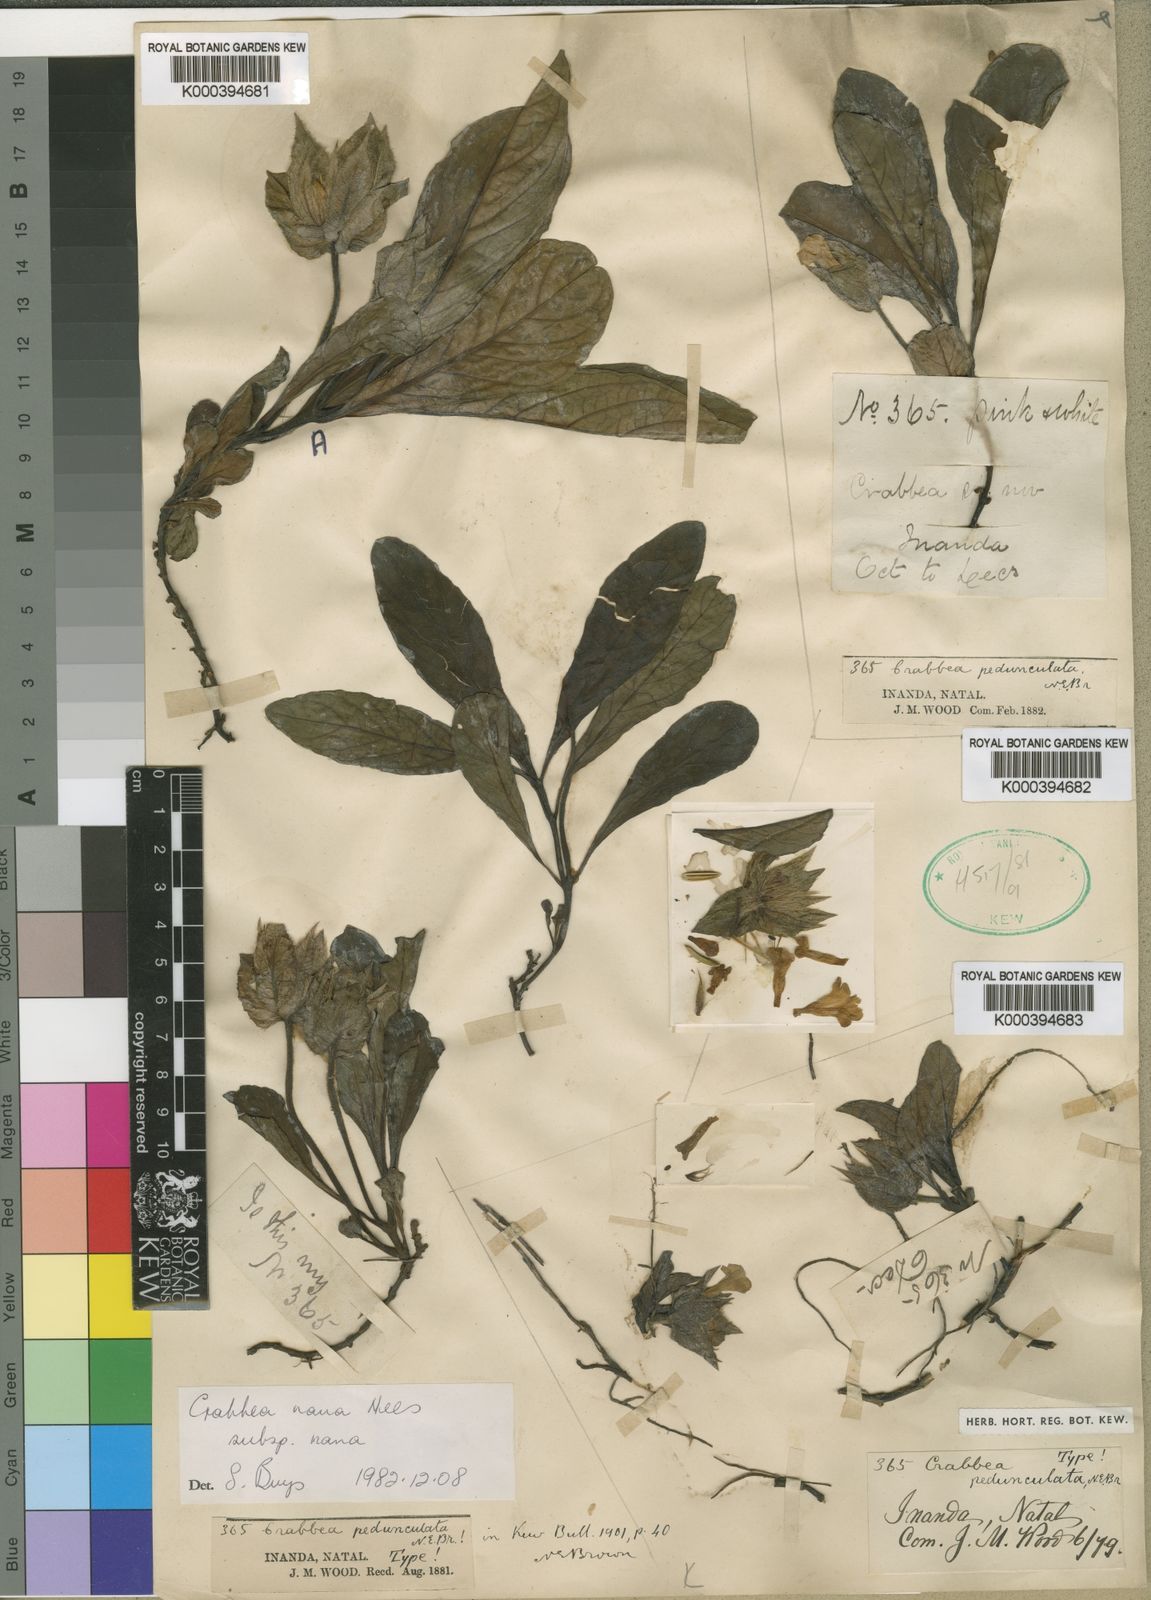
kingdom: Plantae
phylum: Tracheophyta
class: Magnoliopsida
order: Lamiales
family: Acanthaceae
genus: Crabbea
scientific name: Crabbea nana
